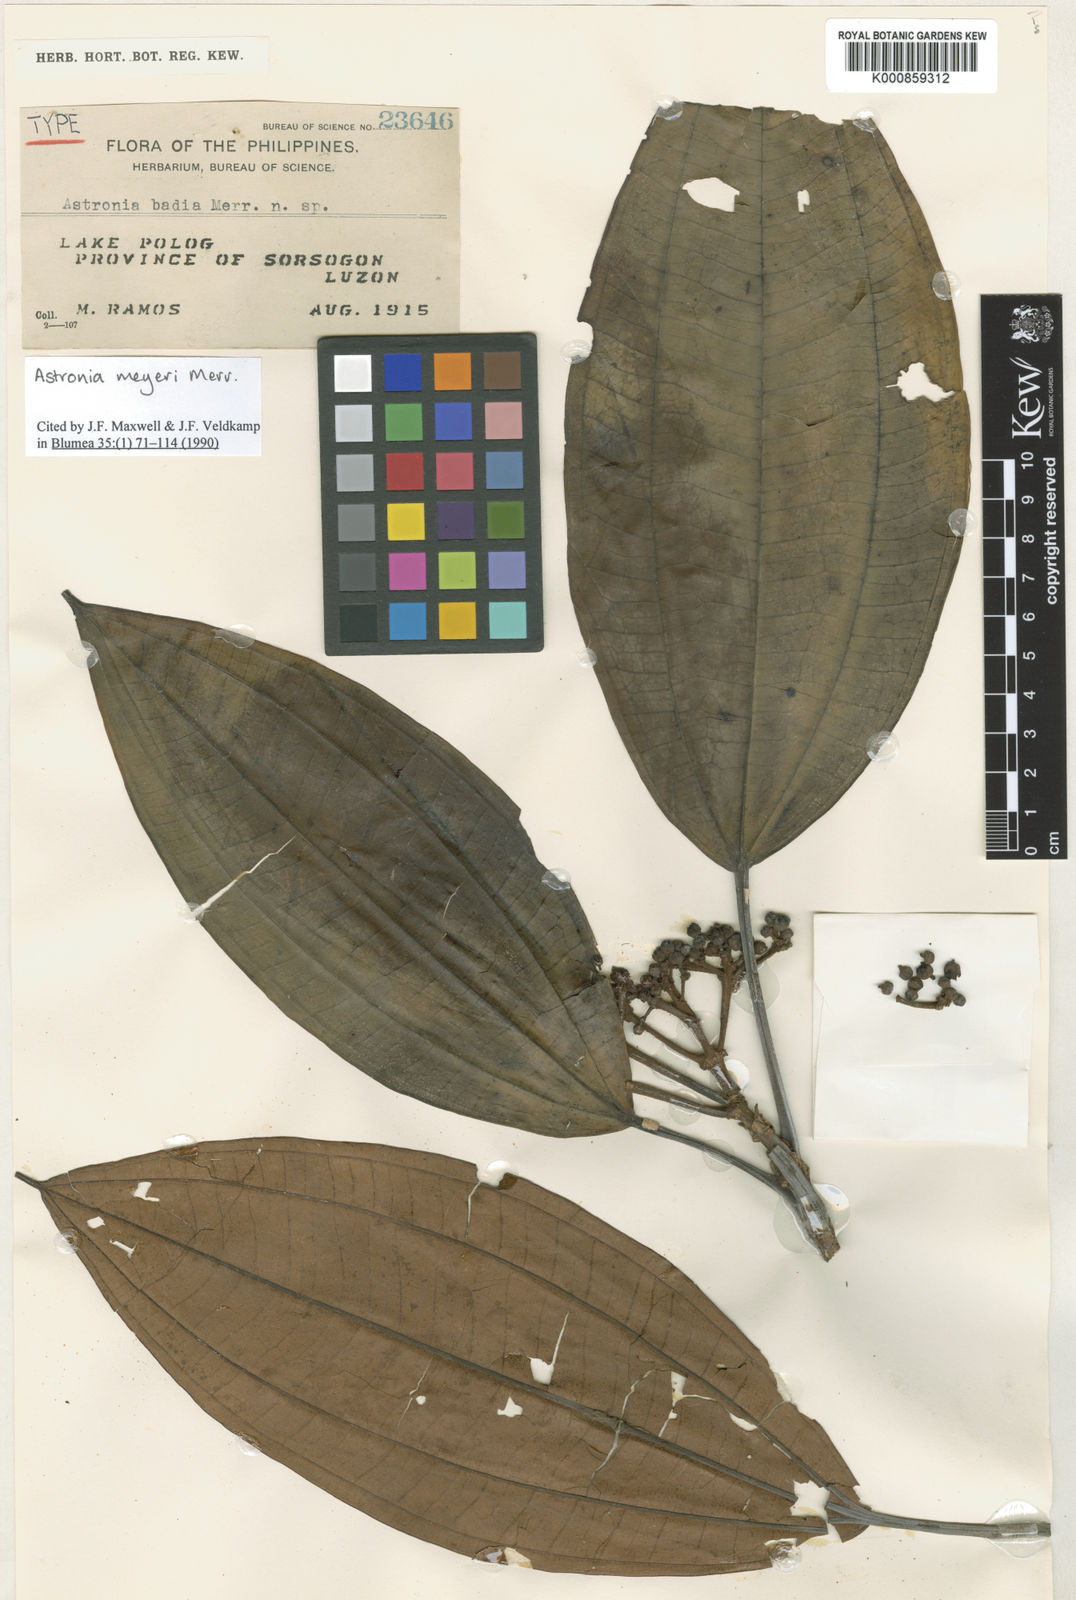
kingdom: Plantae
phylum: Tracheophyta
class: Magnoliopsida
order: Myrtales
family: Melastomataceae
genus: Astronia
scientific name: Astronia meyeri
